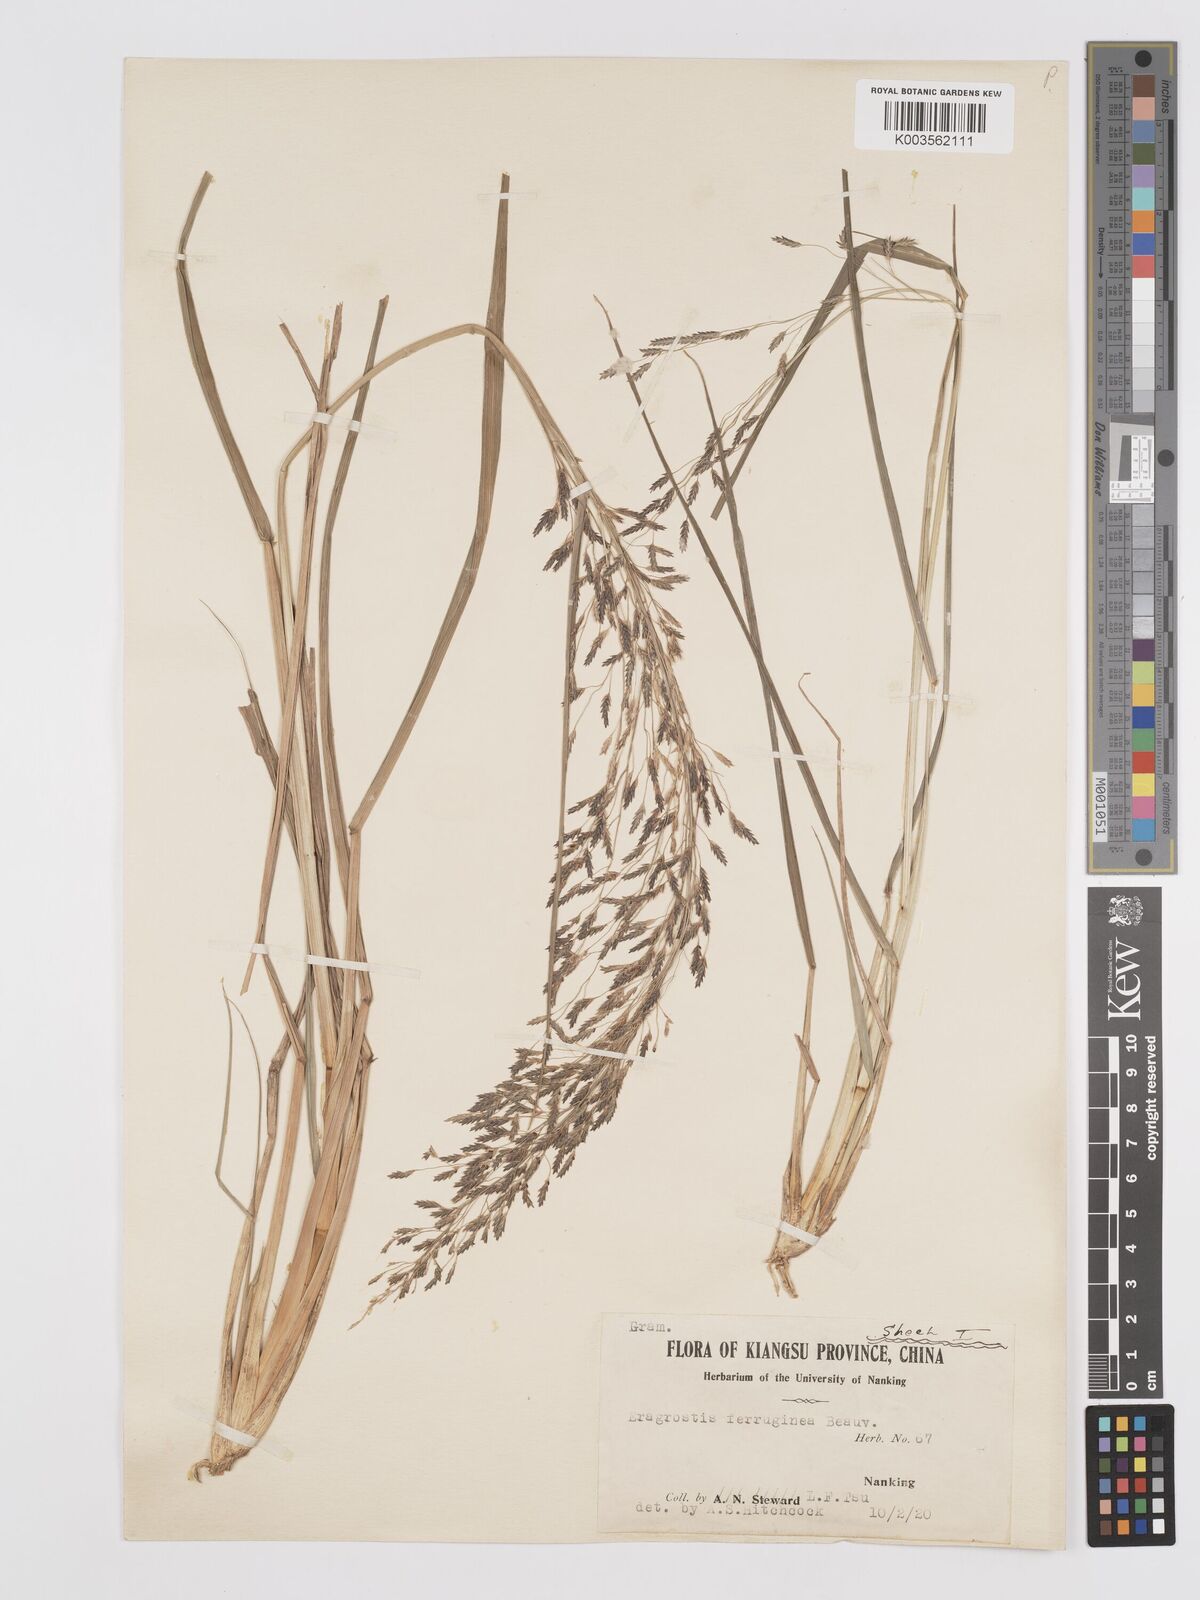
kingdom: Plantae
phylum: Tracheophyta
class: Liliopsida
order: Poales
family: Poaceae
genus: Eragrostis
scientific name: Eragrostis ferruginea
